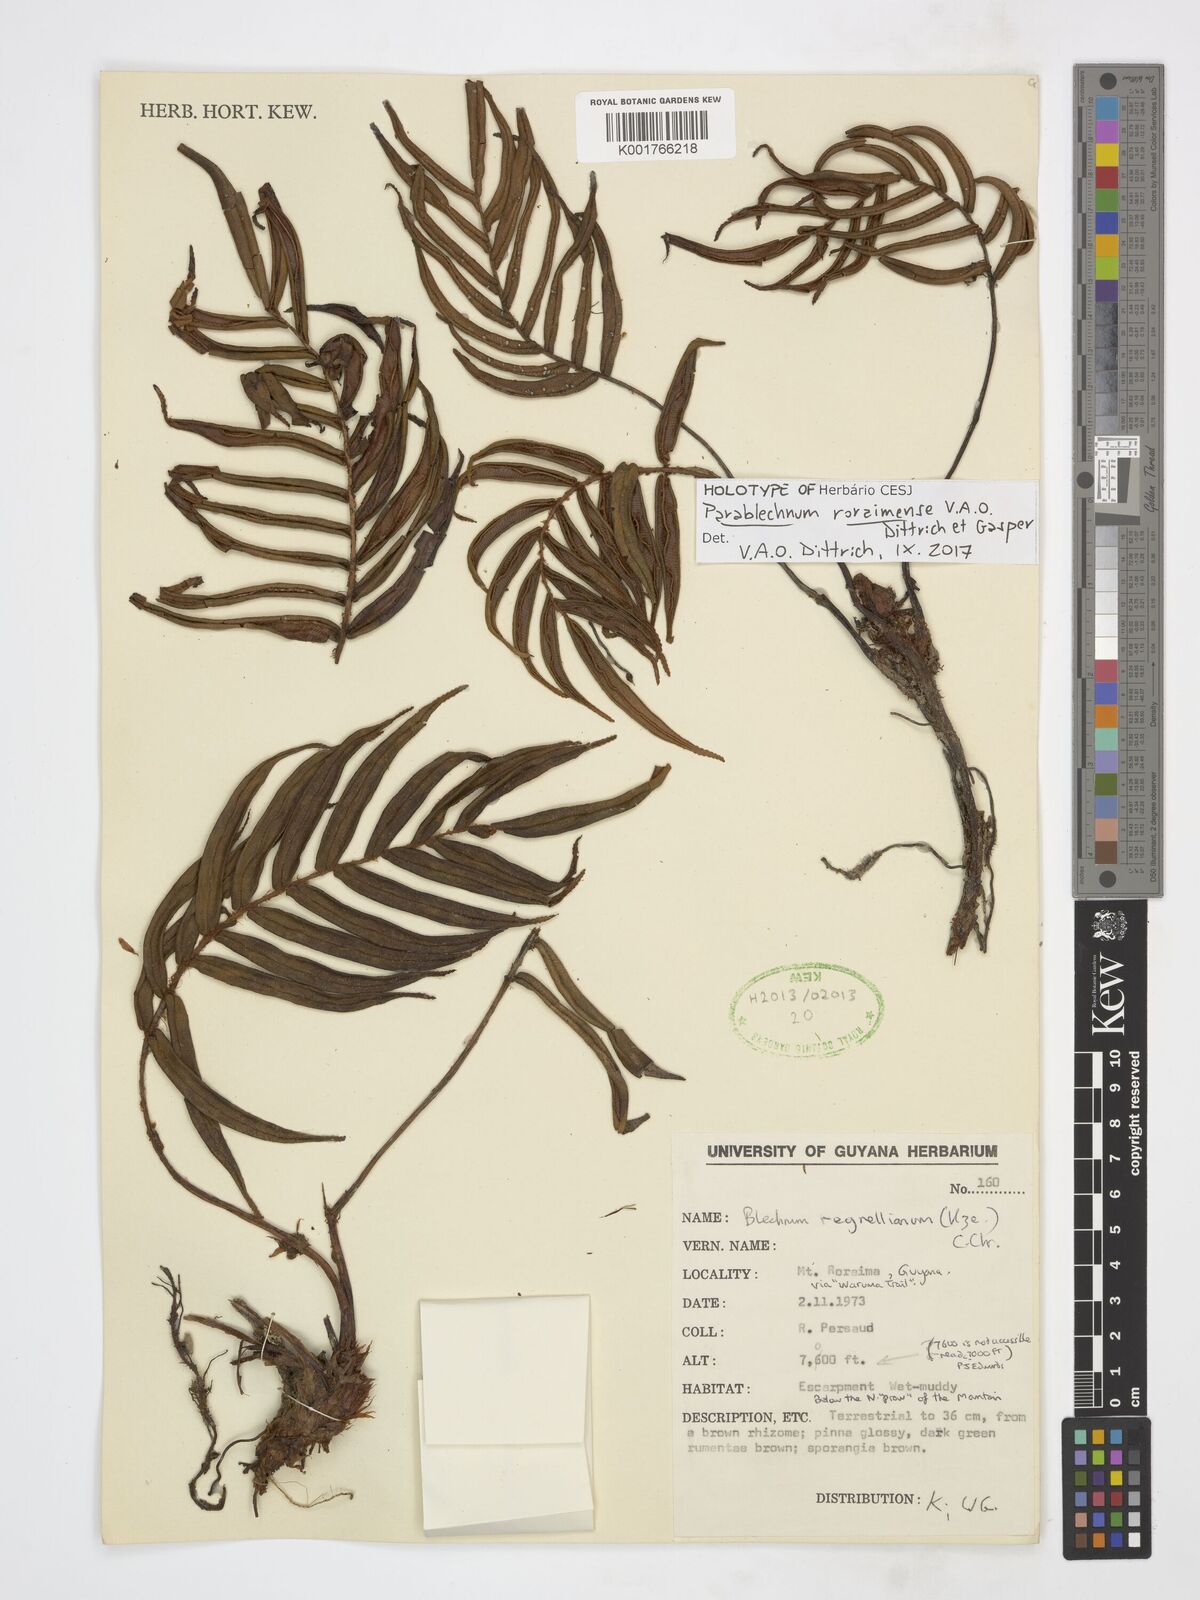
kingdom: Plantae
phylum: Tracheophyta
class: Polypodiopsida
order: Polypodiales
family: Blechnaceae
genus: Parablechnum
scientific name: Parablechnum roraimense
